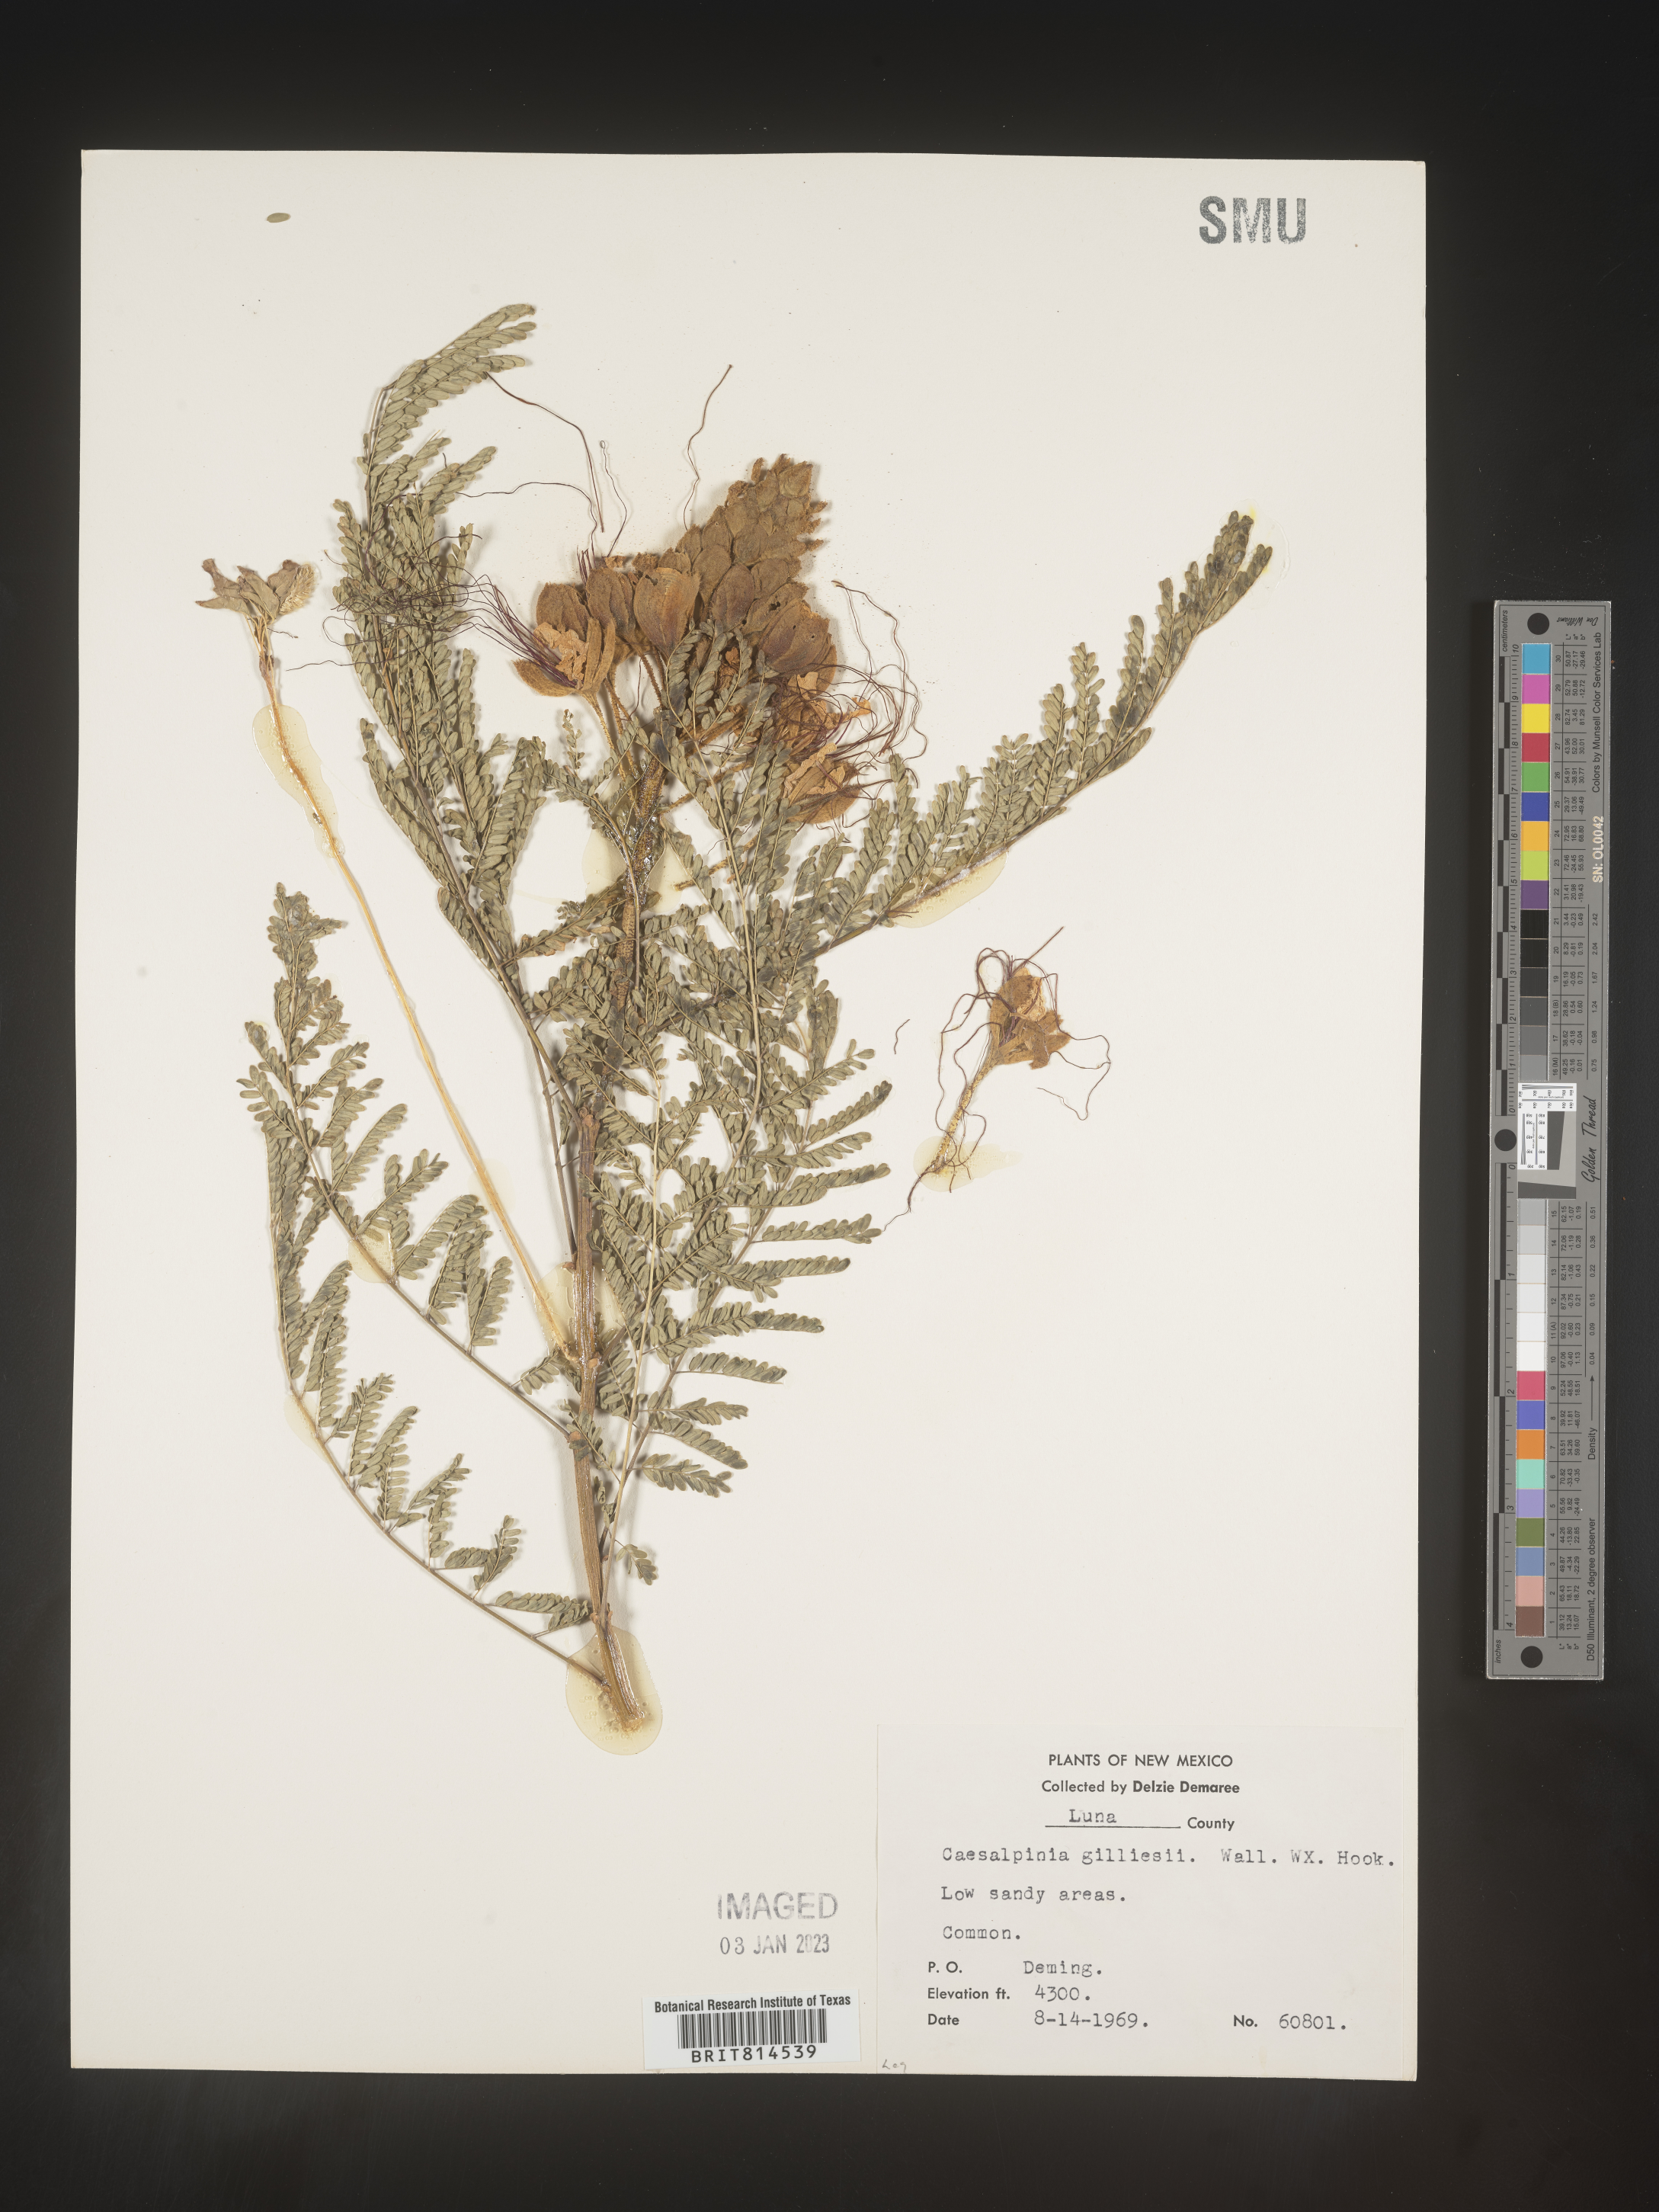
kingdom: Plantae
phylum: Tracheophyta
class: Magnoliopsida
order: Fabales
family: Fabaceae
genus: Caesalpinia
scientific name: Caesalpinia
